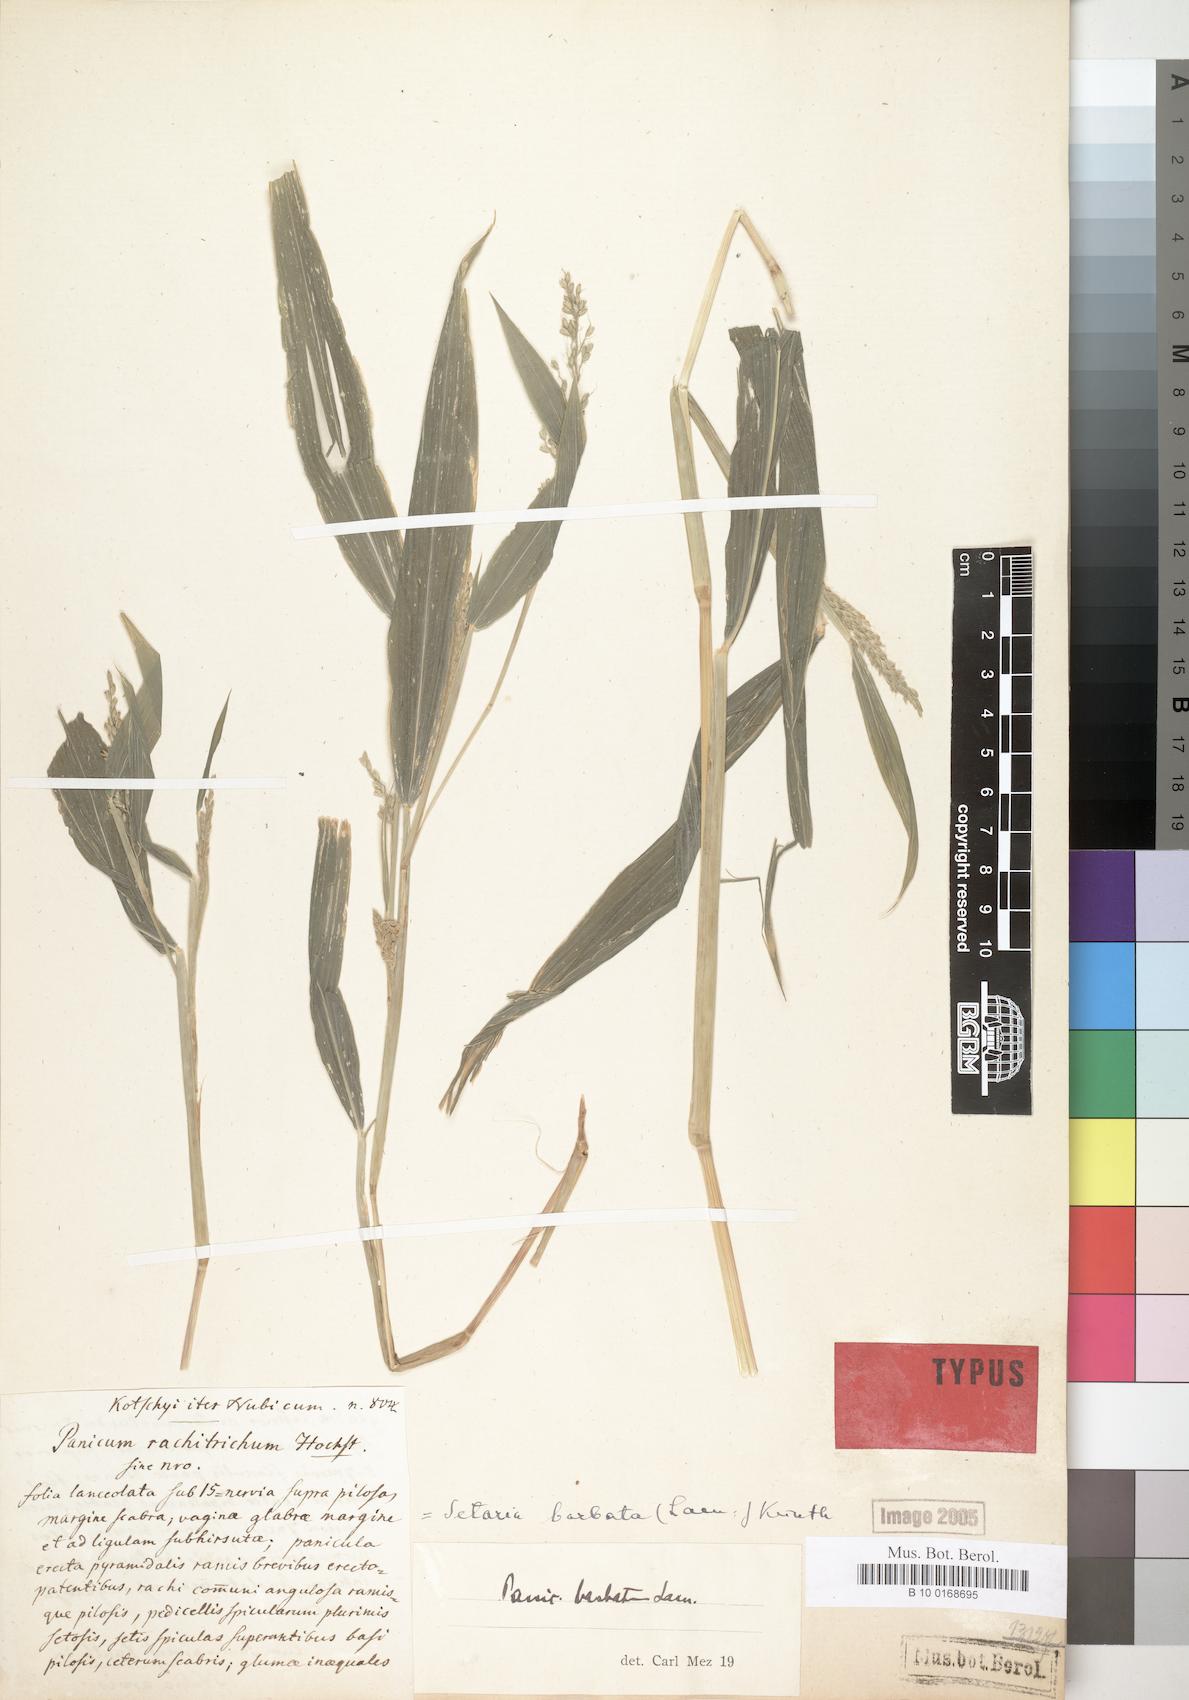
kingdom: Plantae
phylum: Tracheophyta
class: Liliopsida
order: Poales
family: Poaceae
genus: Setaria
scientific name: Setaria barbata
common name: East indian bristlegrass
